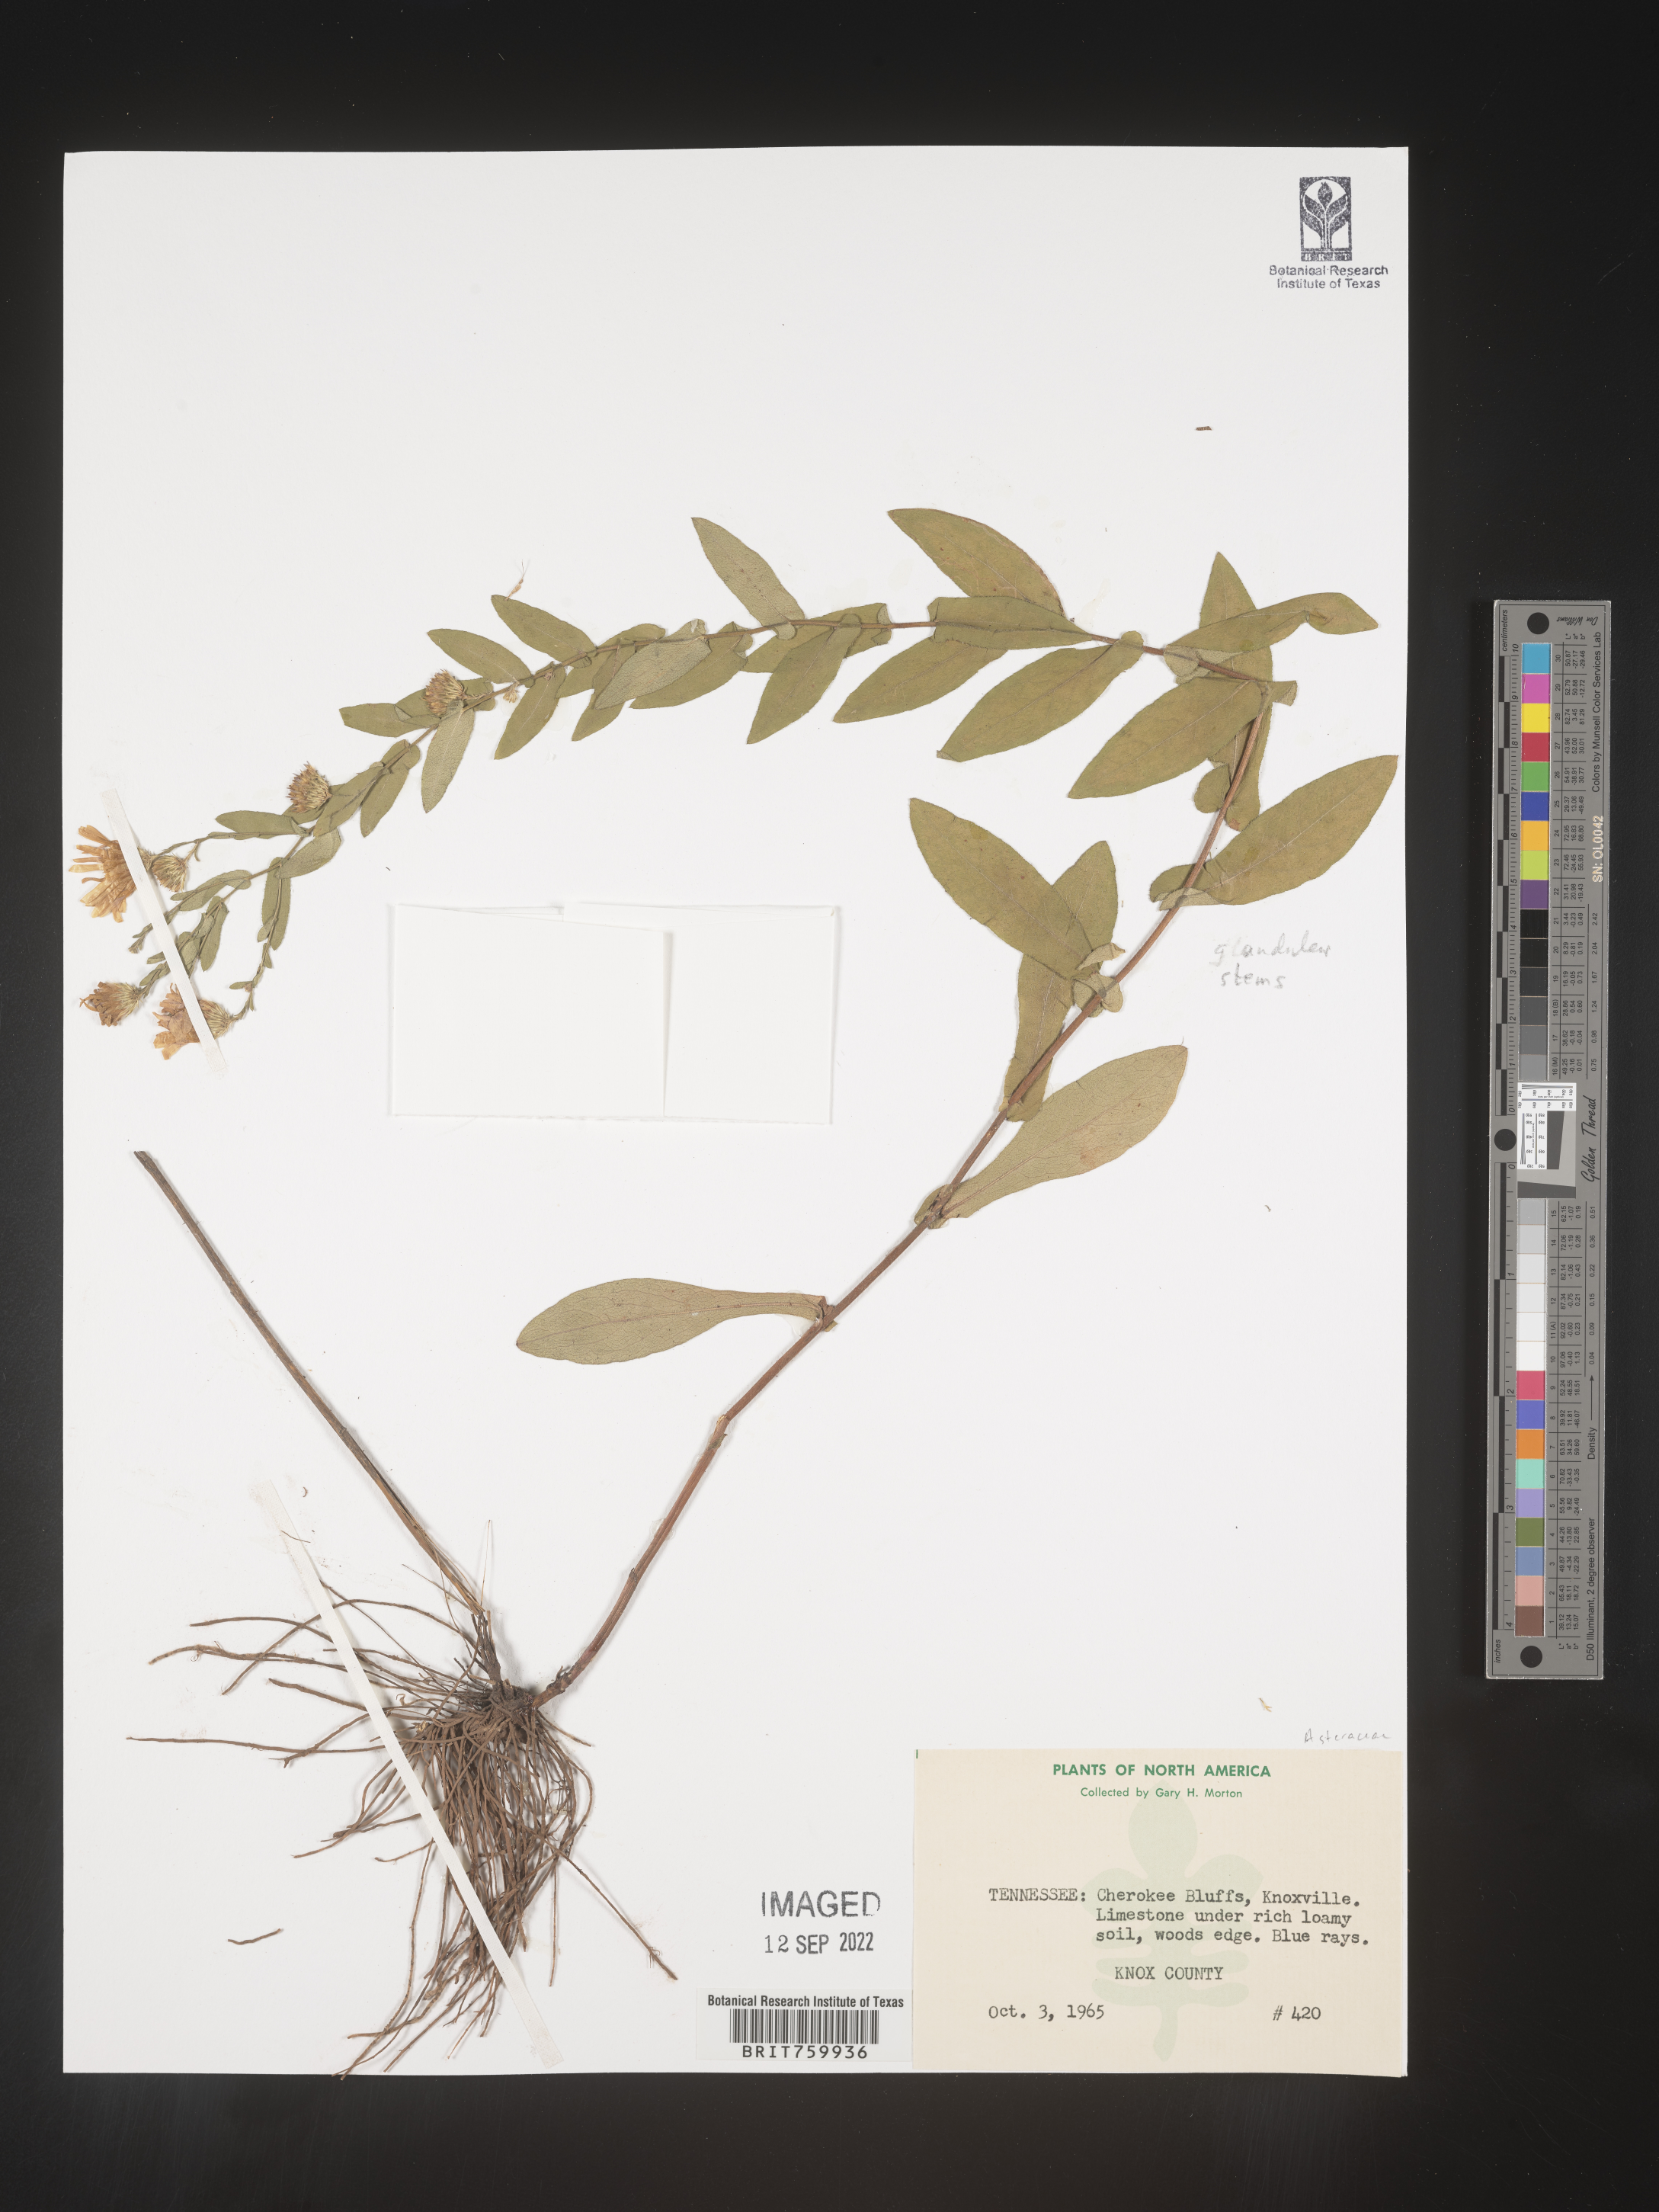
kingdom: Plantae
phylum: Tracheophyta
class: Magnoliopsida
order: Asterales
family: Asteraceae
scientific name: Asteraceae
